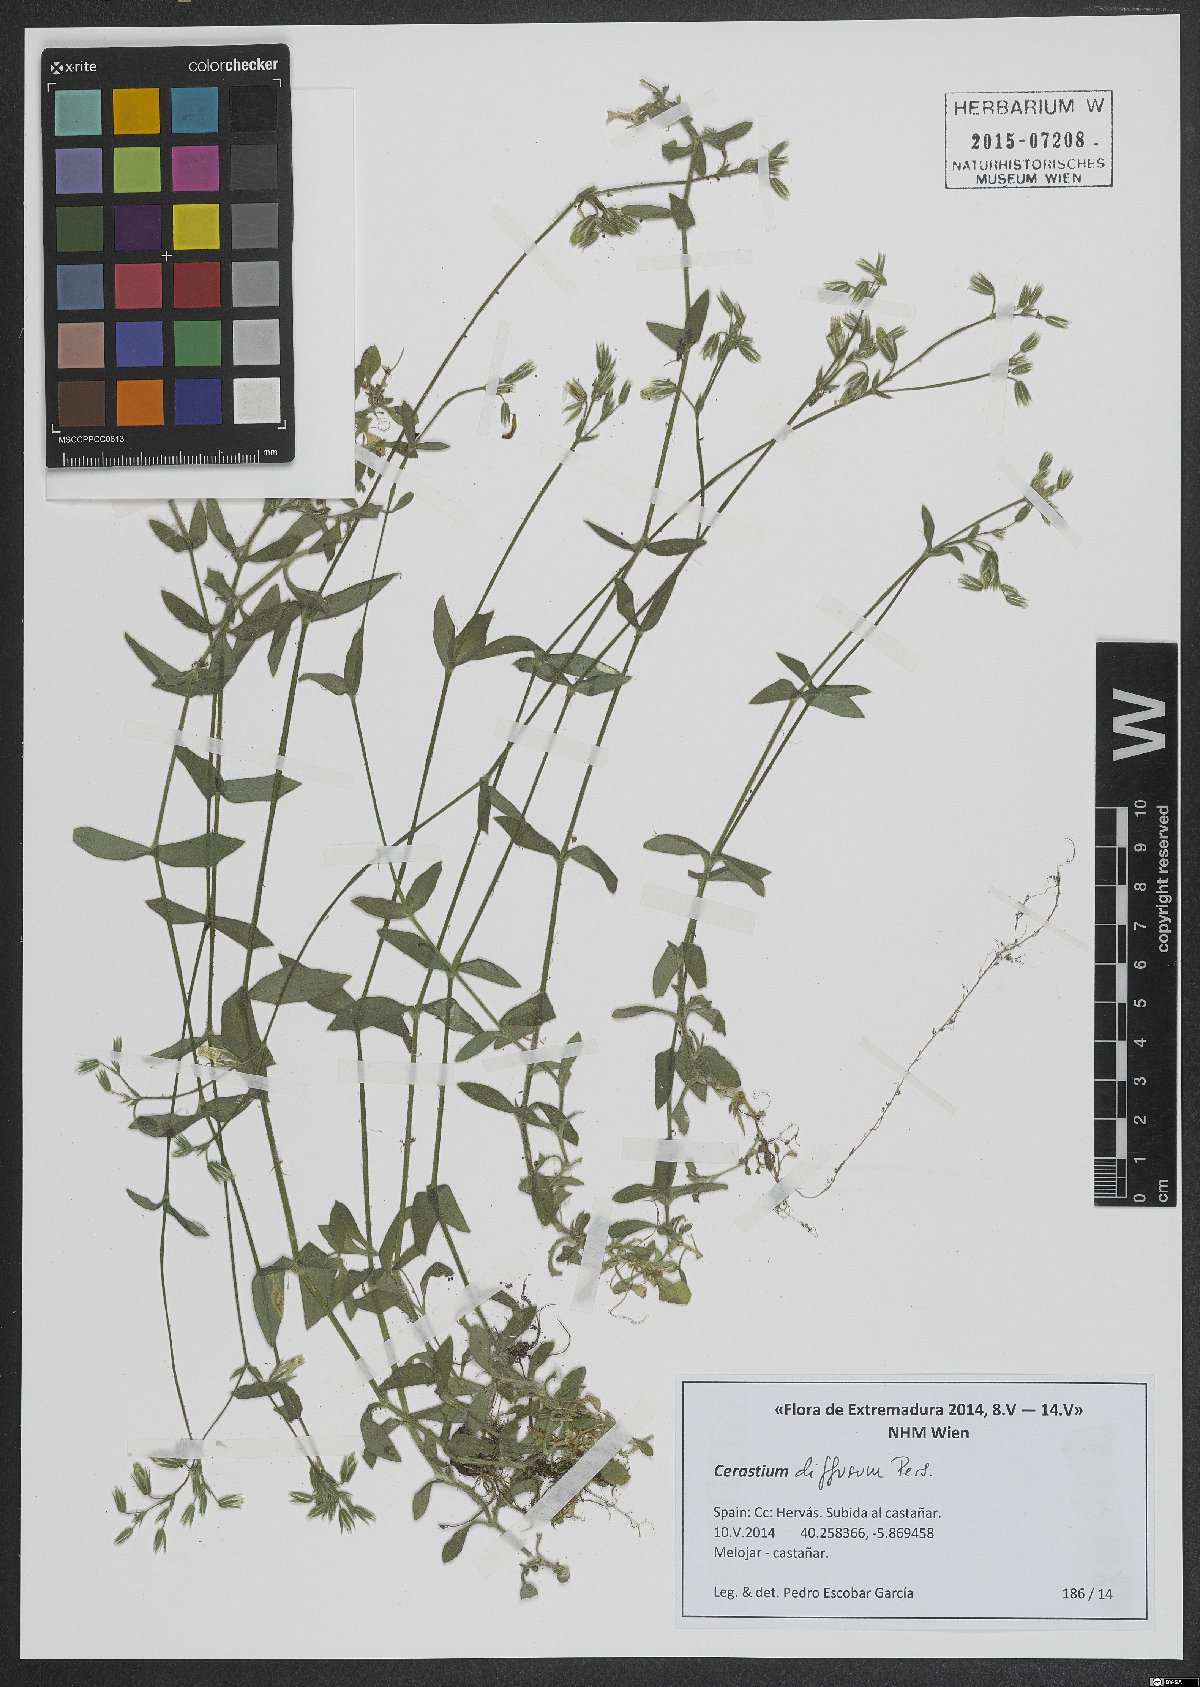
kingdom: Plantae
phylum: Tracheophyta
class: Magnoliopsida
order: Caryophyllales
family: Caryophyllaceae
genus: Cerastium
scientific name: Cerastium diffusum
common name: Fourstamen chickweed
